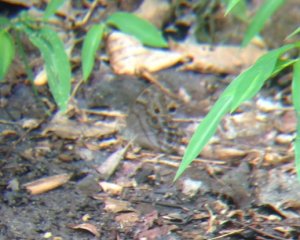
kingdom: Animalia
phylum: Arthropoda
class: Insecta
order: Lepidoptera
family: Nymphalidae
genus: Lethe
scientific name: Lethe anthedon
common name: Northern Pearly-Eye
